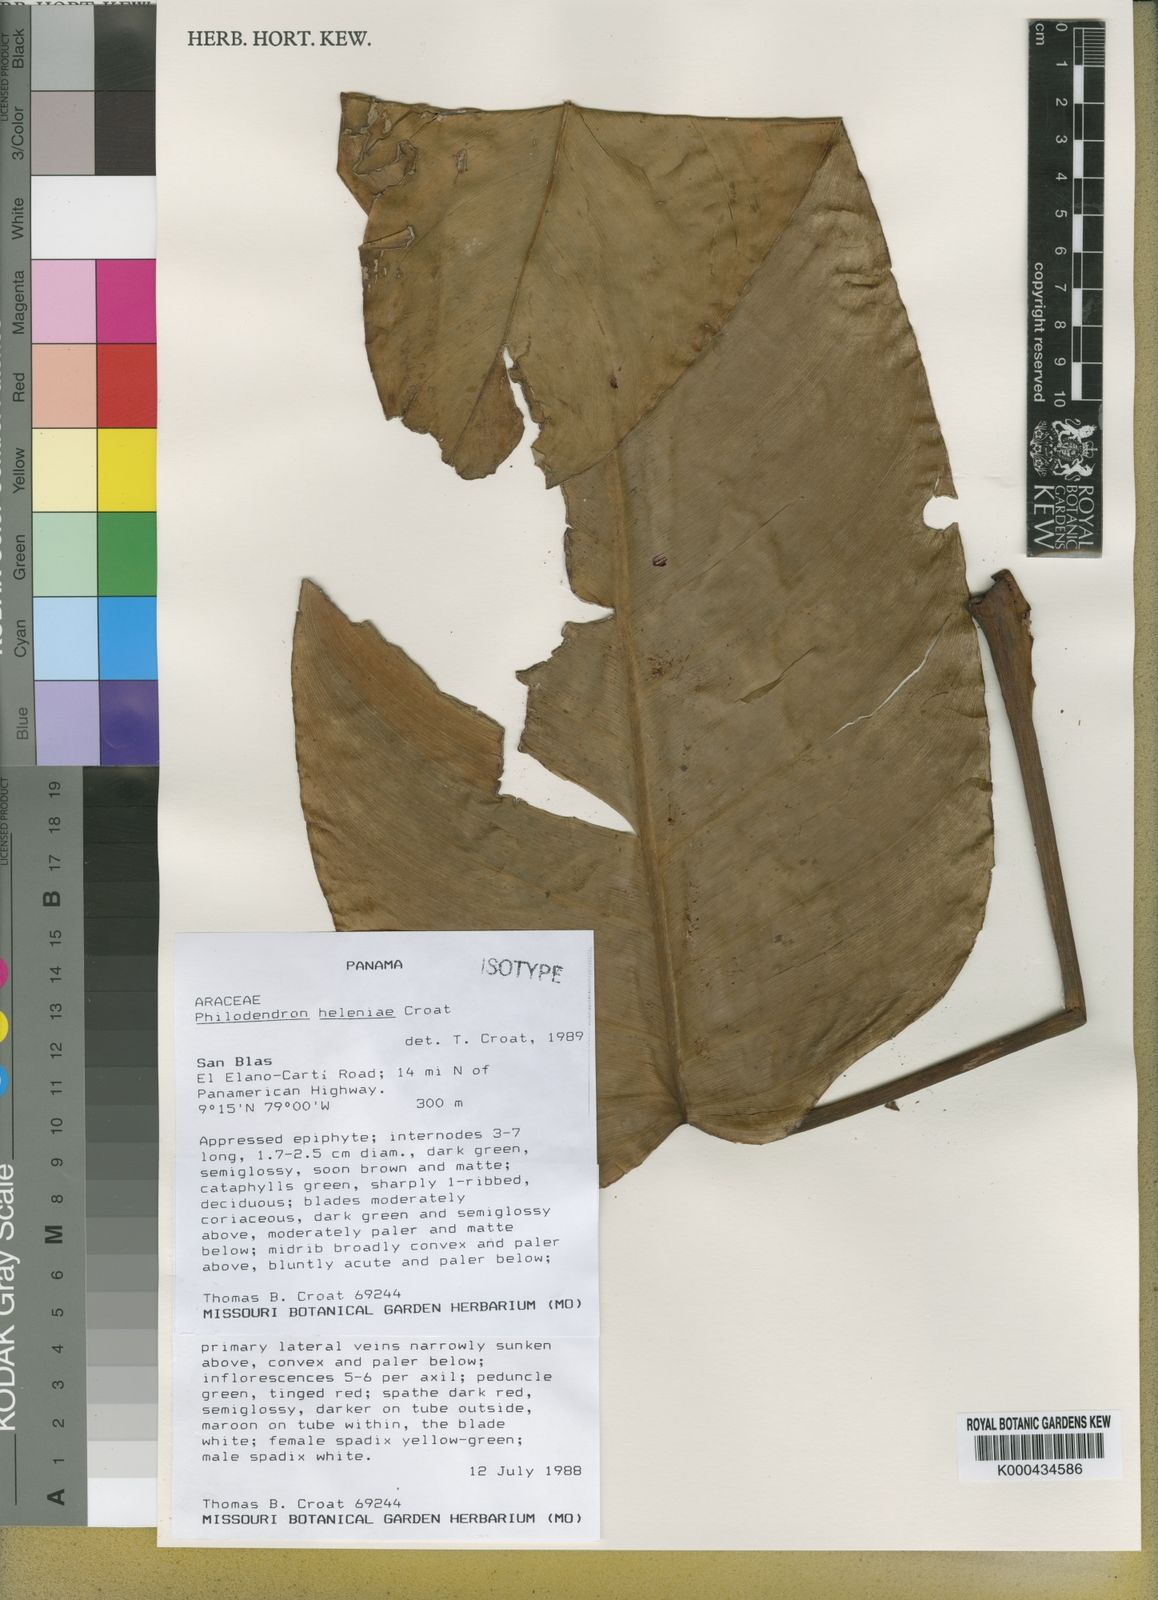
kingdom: Plantae
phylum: Tracheophyta
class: Liliopsida
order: Alismatales
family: Araceae
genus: Philodendron
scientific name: Philodendron heleniae
